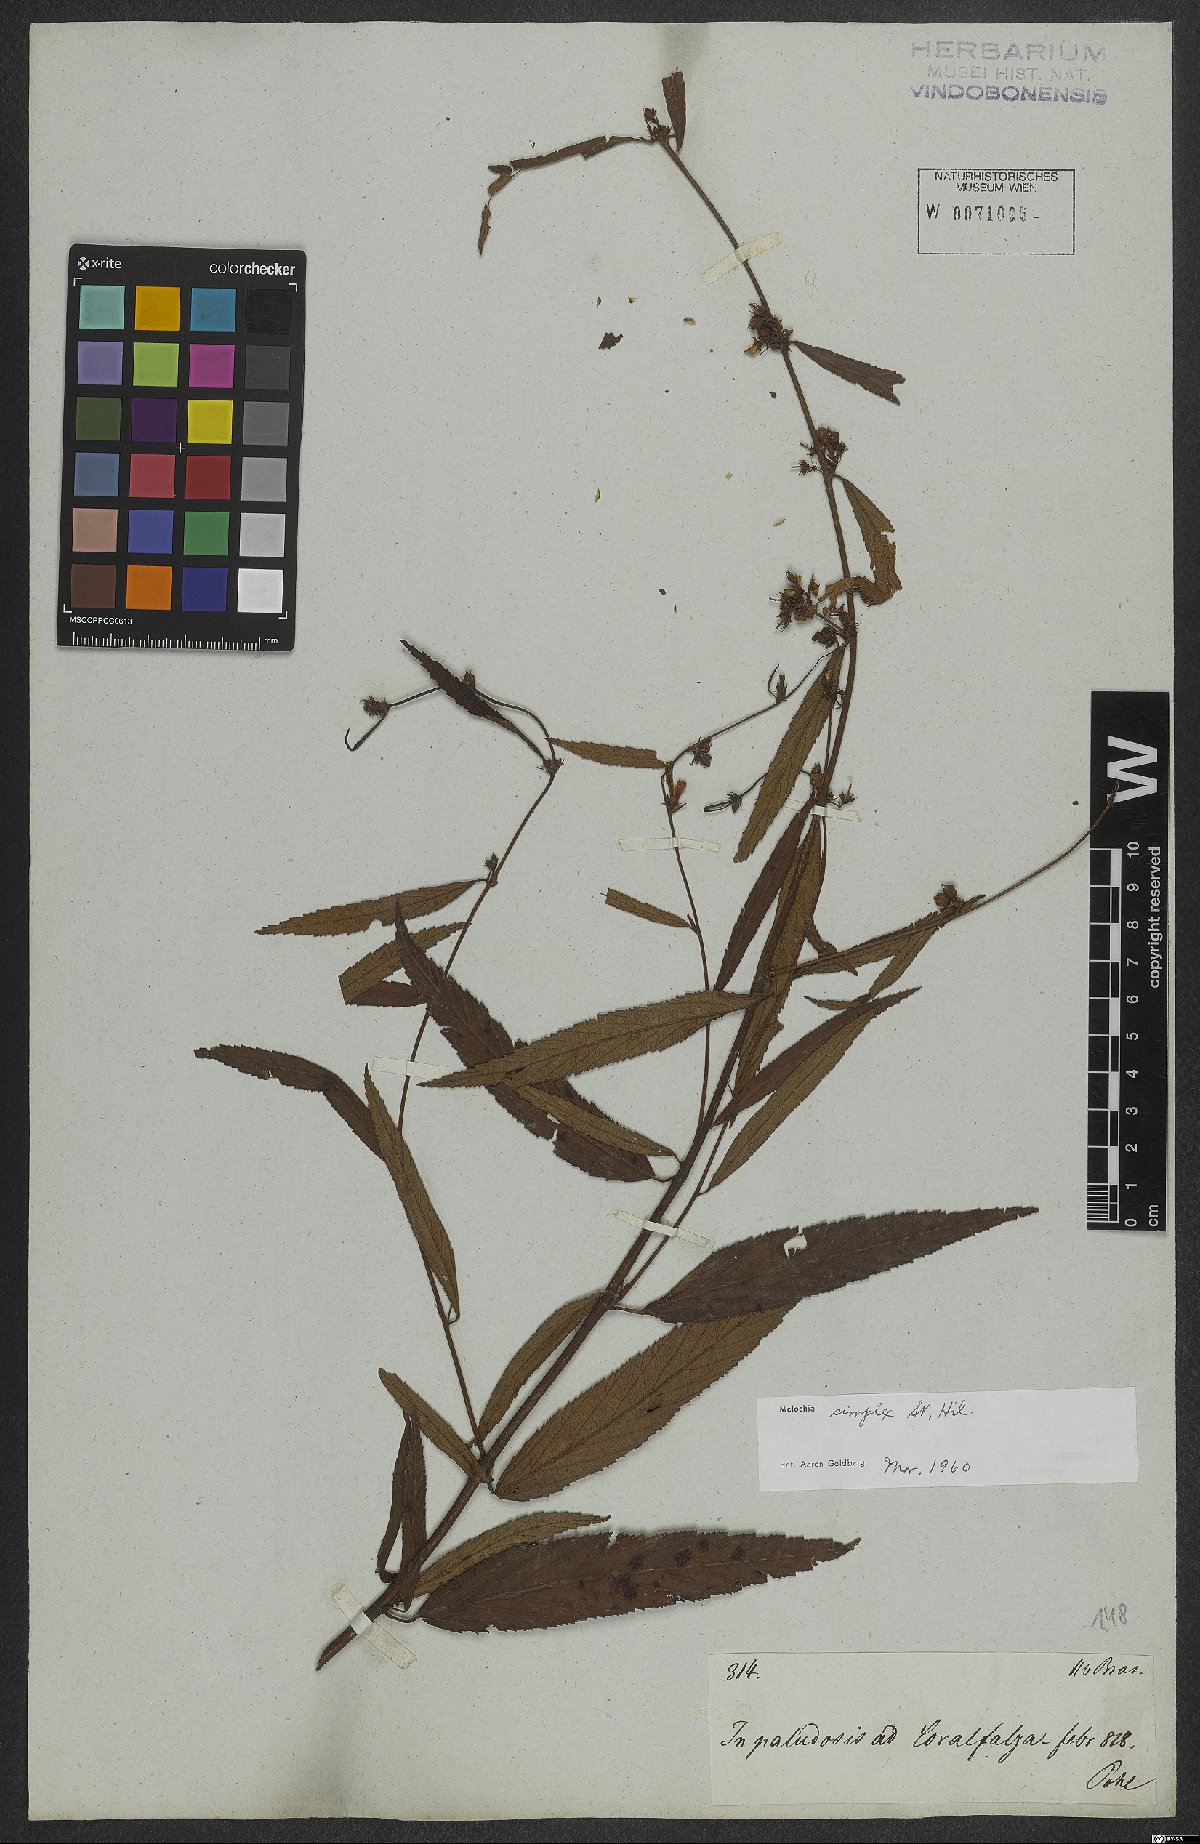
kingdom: Plantae
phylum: Tracheophyta
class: Magnoliopsida
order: Malvales
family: Malvaceae
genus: Melochia
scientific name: Melochia simplex
